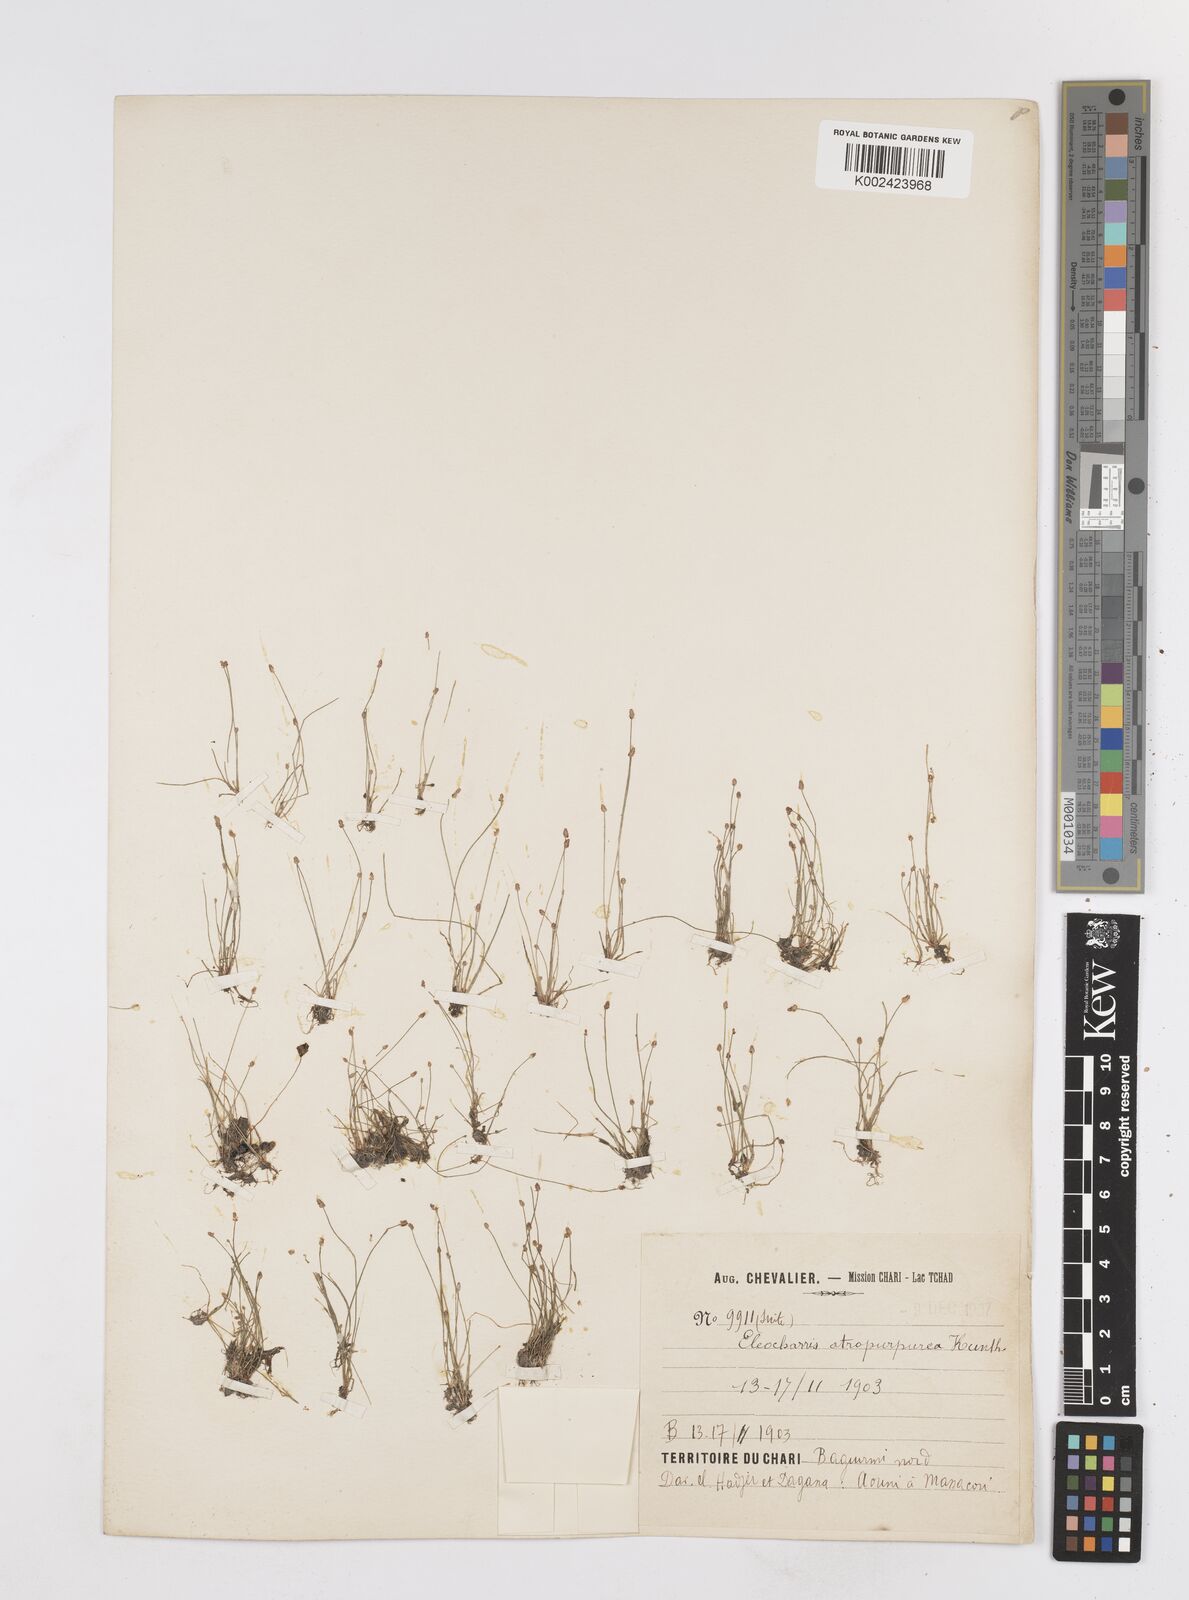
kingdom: Plantae
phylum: Tracheophyta
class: Liliopsida
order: Poales
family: Cyperaceae
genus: Eleocharis
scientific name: Eleocharis atropurpurea
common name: Purple spikerush
